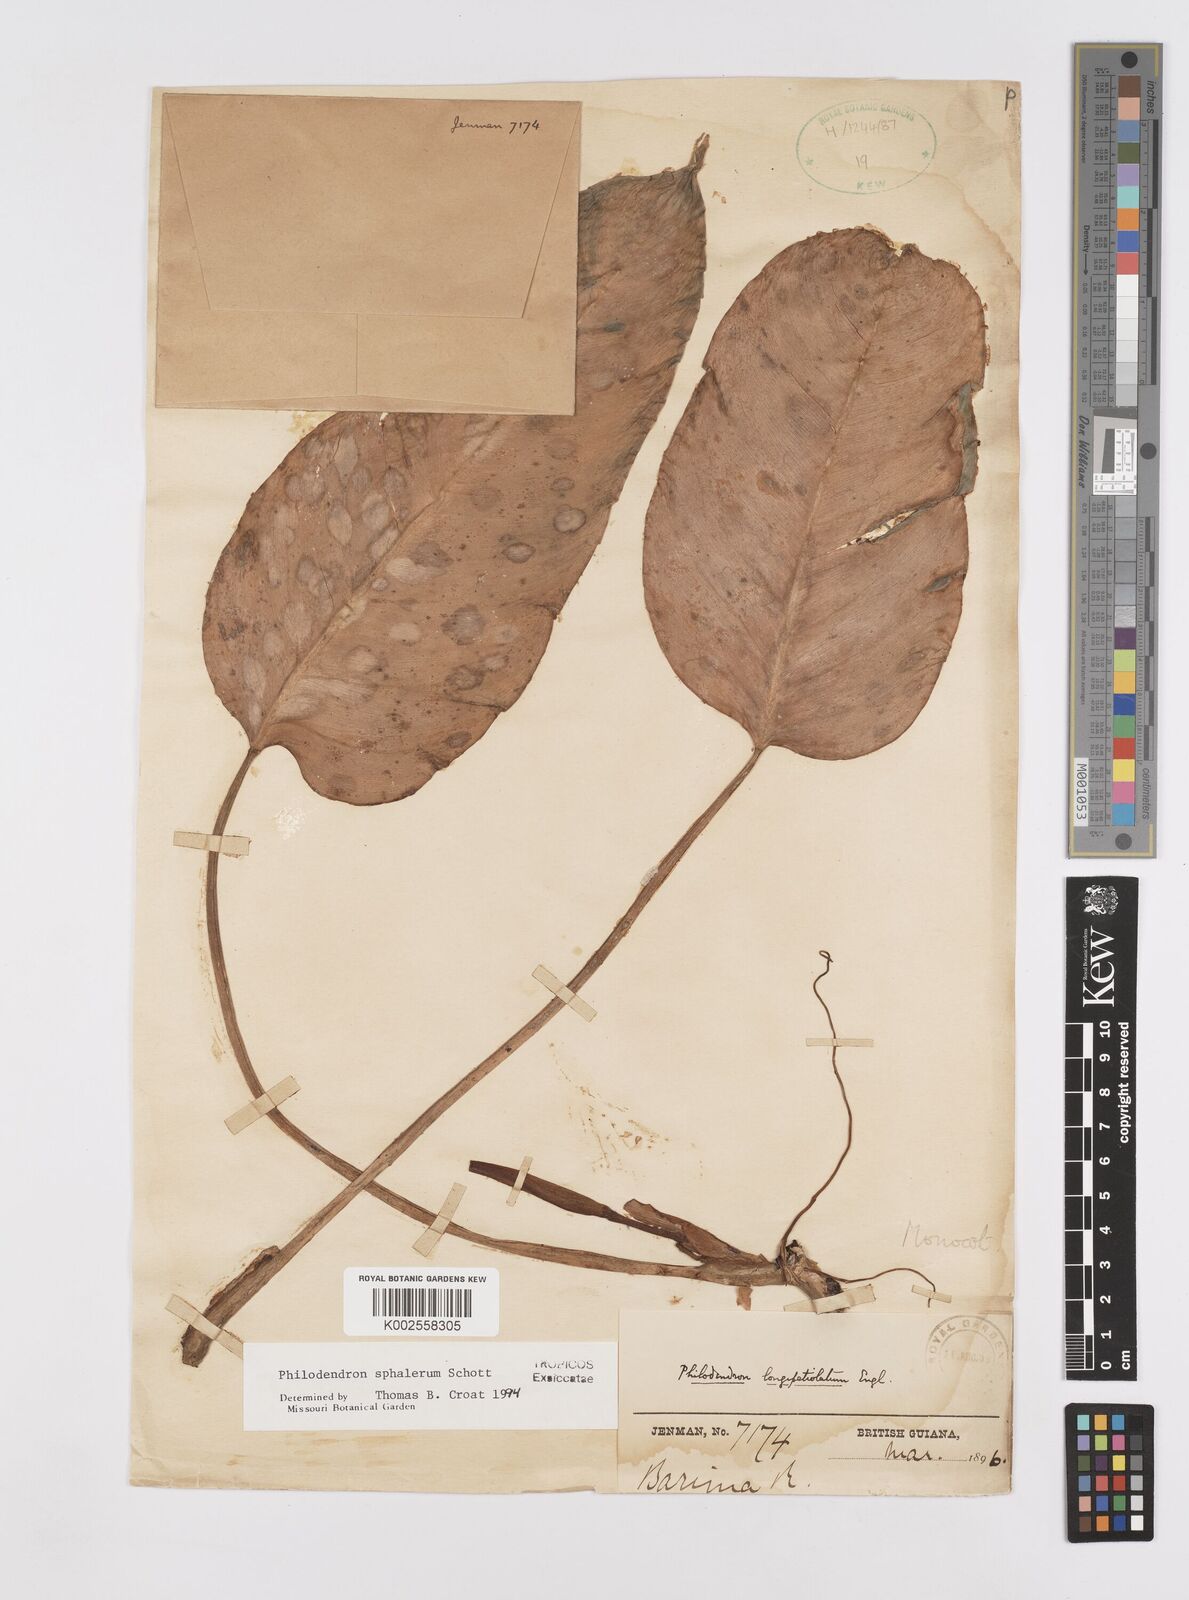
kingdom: Plantae
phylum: Tracheophyta
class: Liliopsida
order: Alismatales
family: Araceae
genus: Philodendron
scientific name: Philodendron sphalerum
